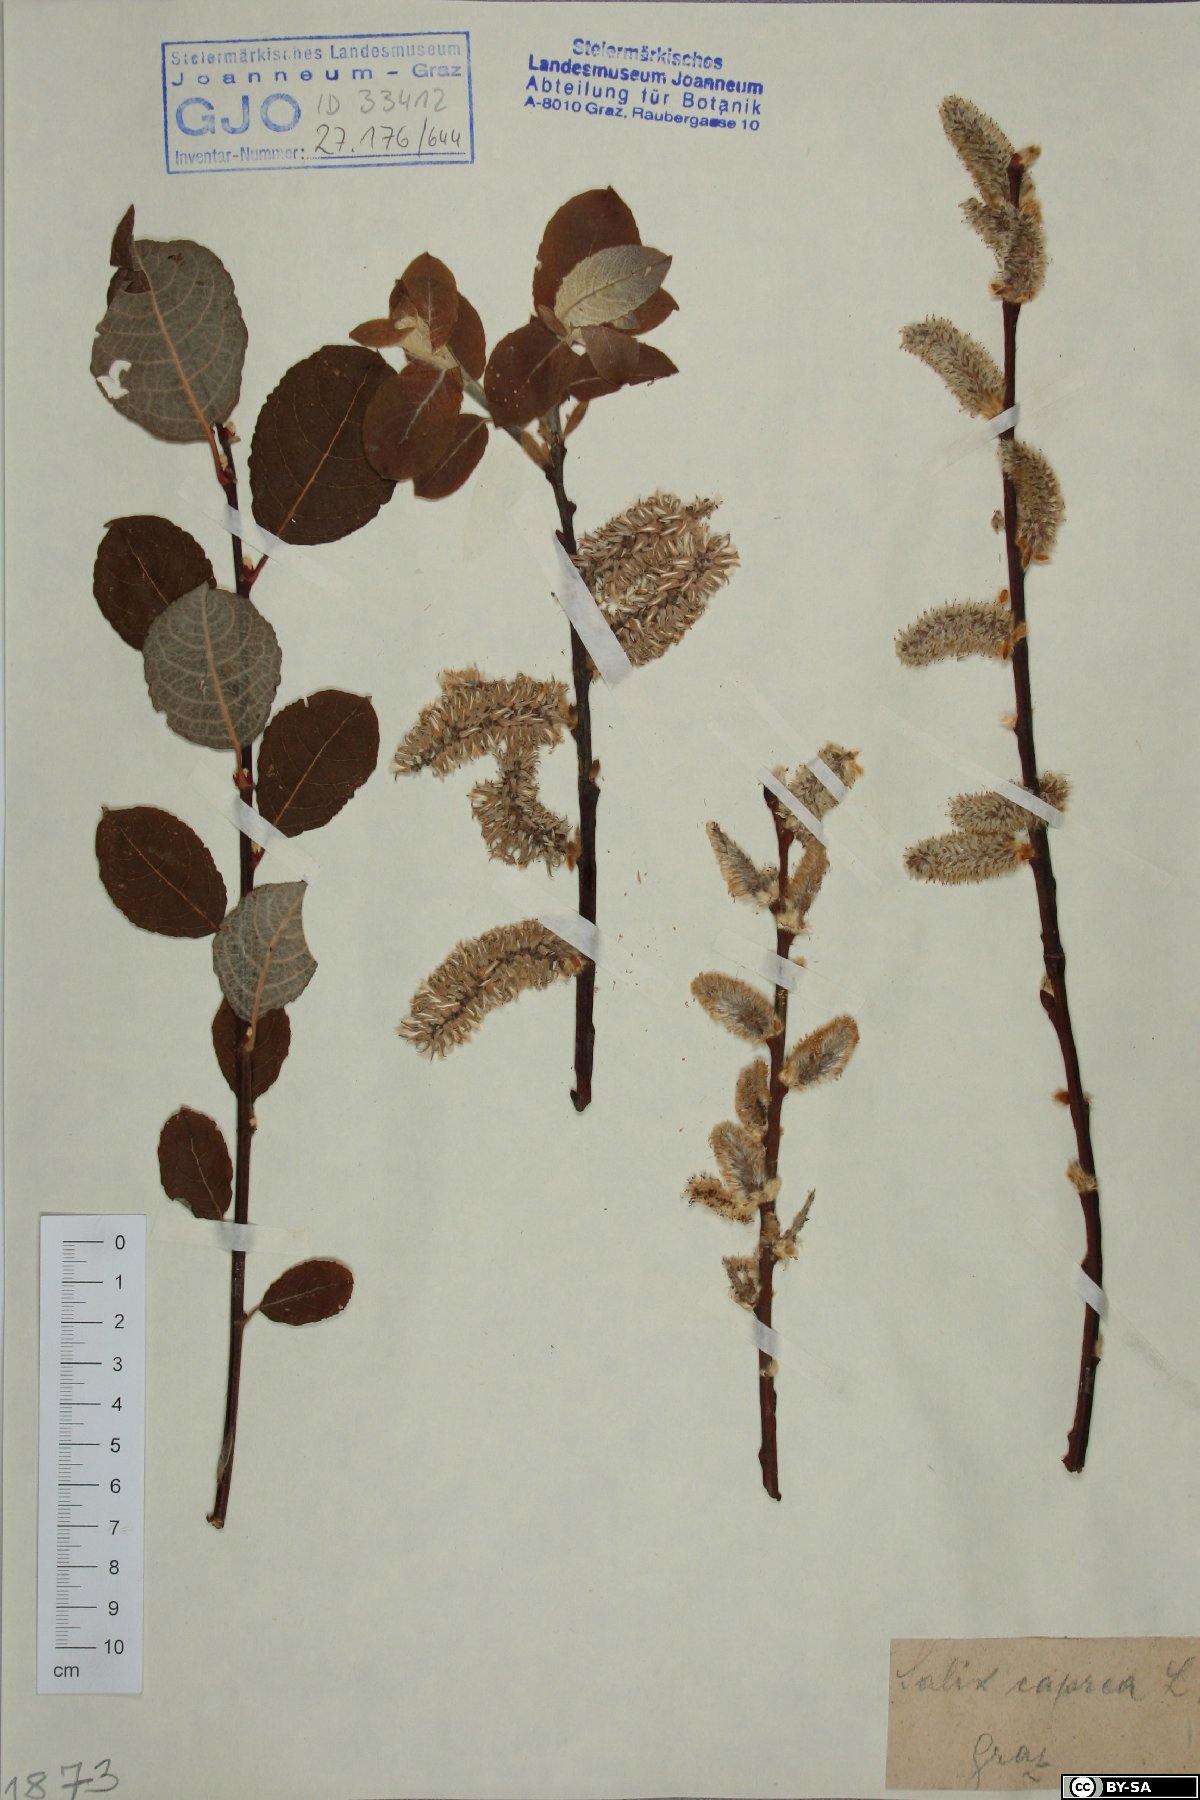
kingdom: Plantae
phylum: Tracheophyta
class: Magnoliopsida
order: Malpighiales
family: Salicaceae
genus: Salix
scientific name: Salix caprea
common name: Goat willow
